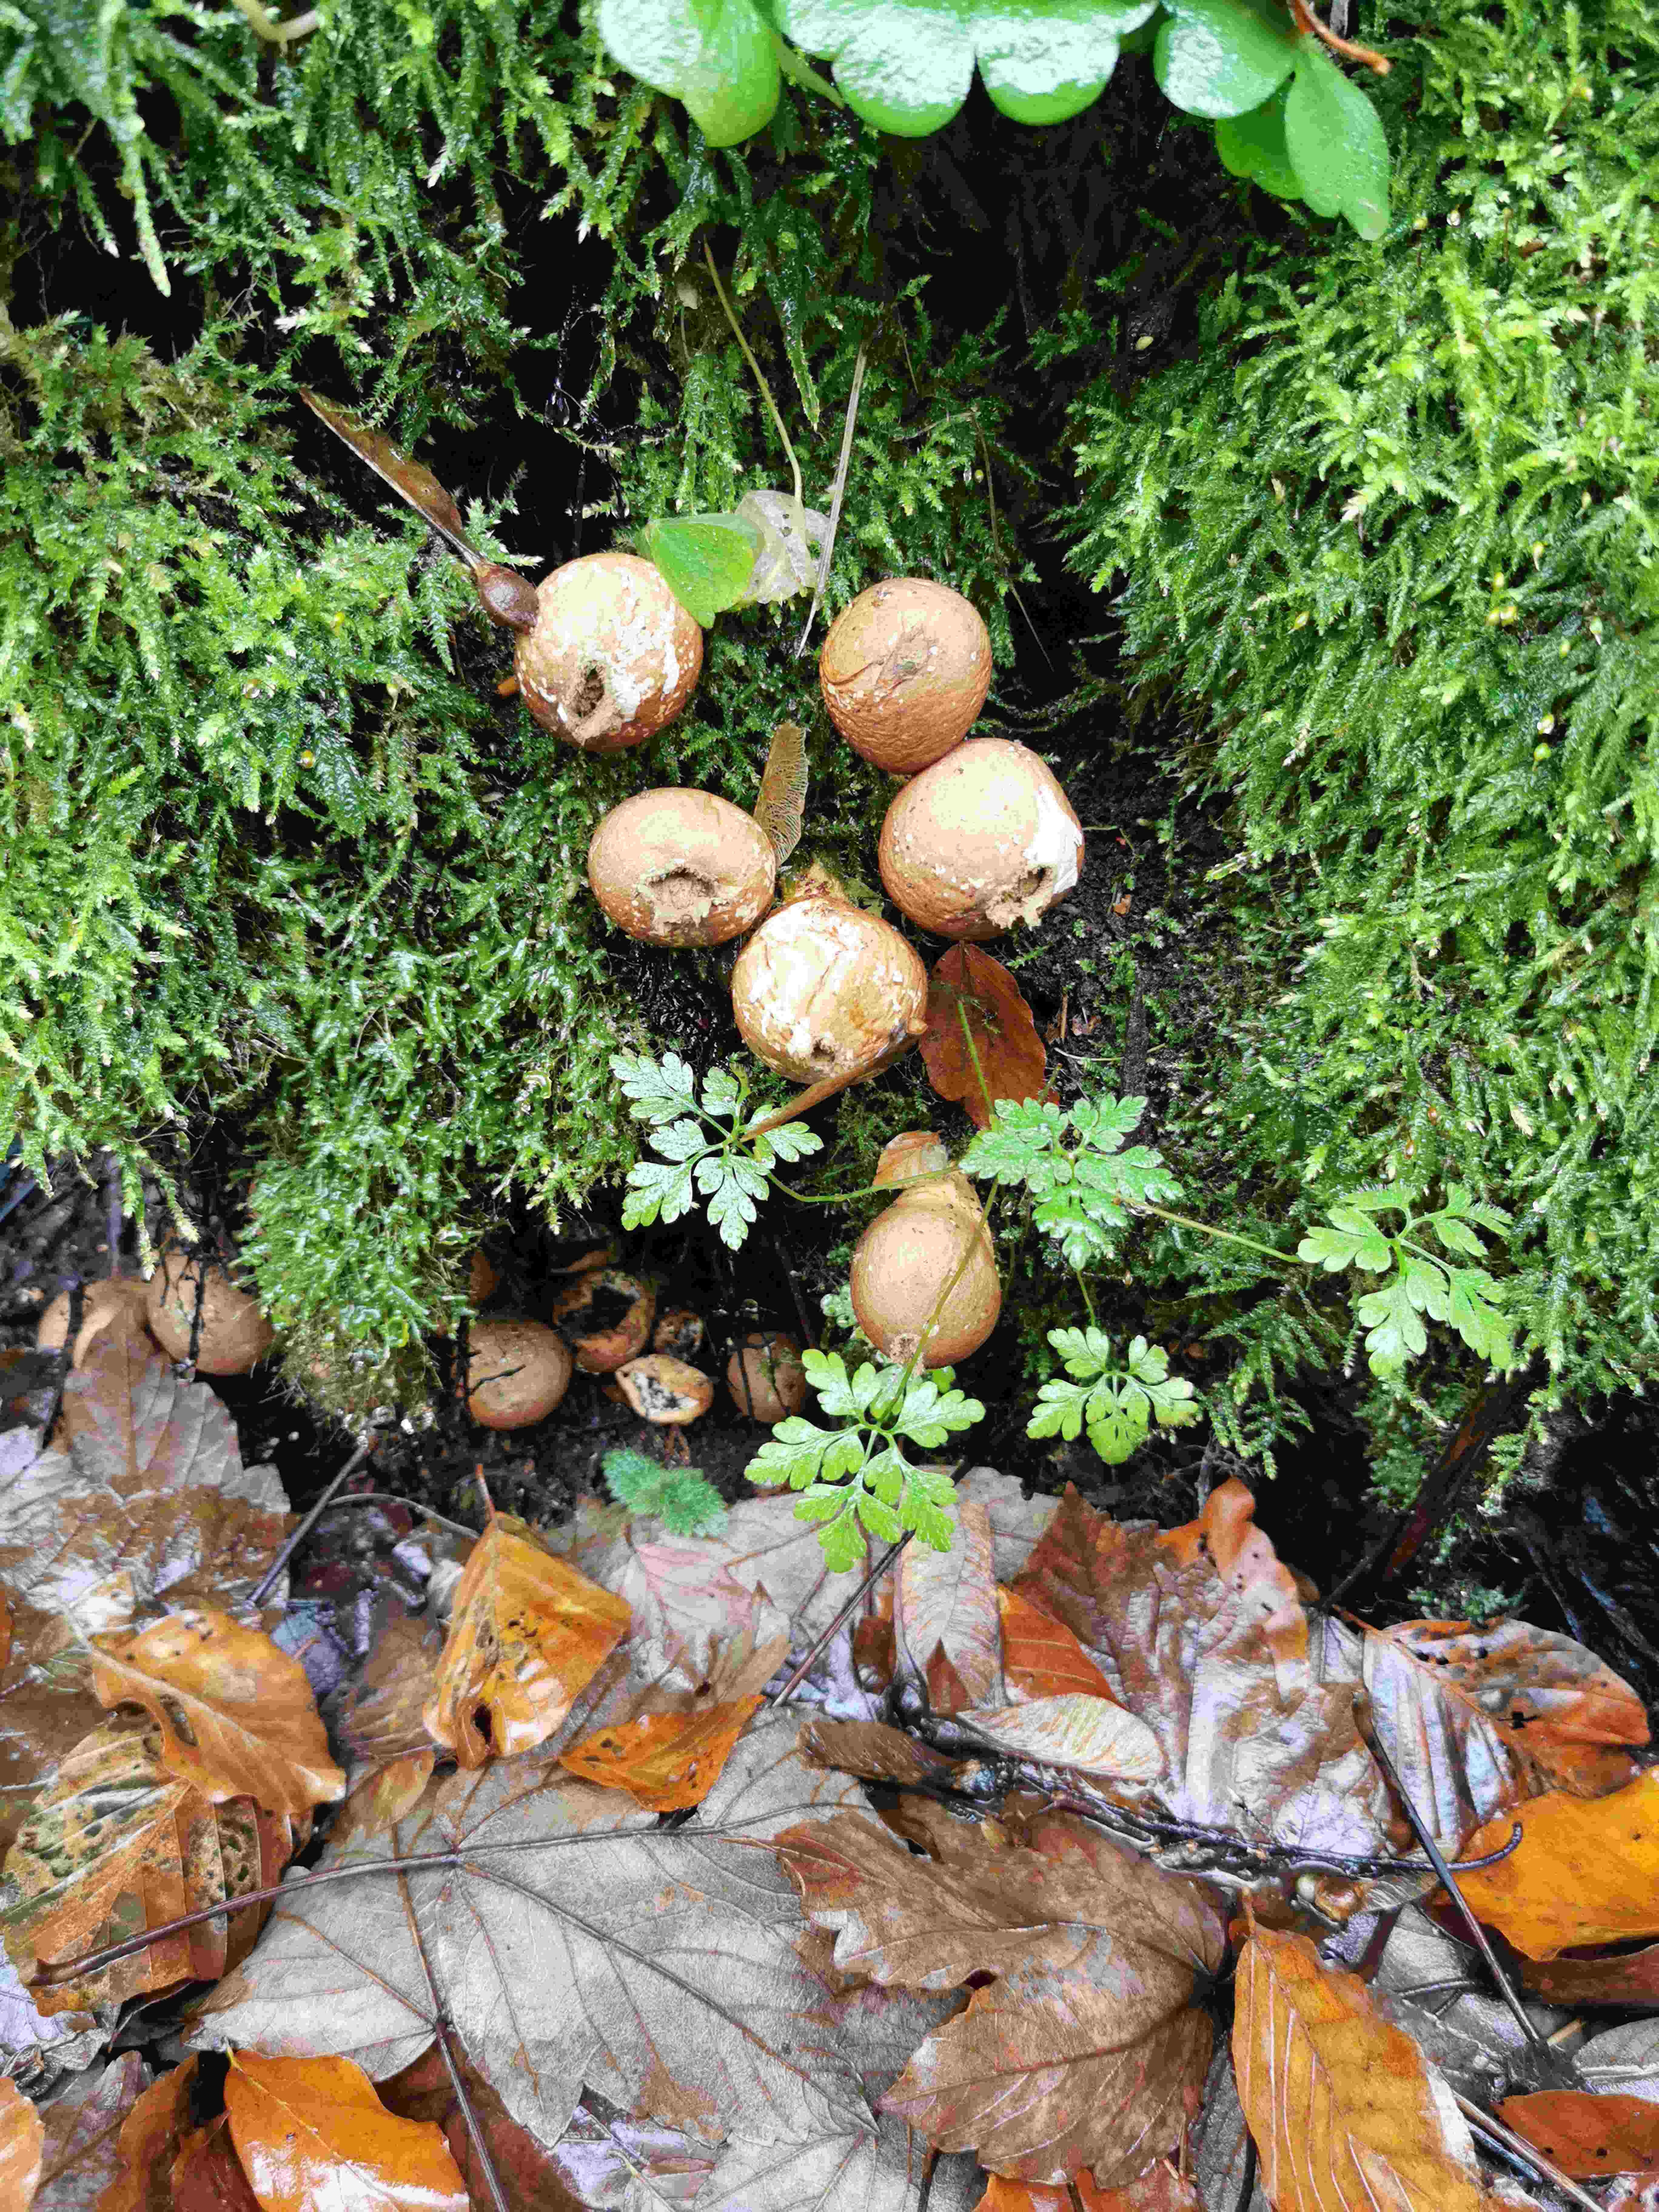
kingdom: Fungi
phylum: Basidiomycota
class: Agaricomycetes
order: Agaricales
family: Lycoperdaceae
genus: Apioperdon
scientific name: Apioperdon pyriforme
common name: pære-støvbold
